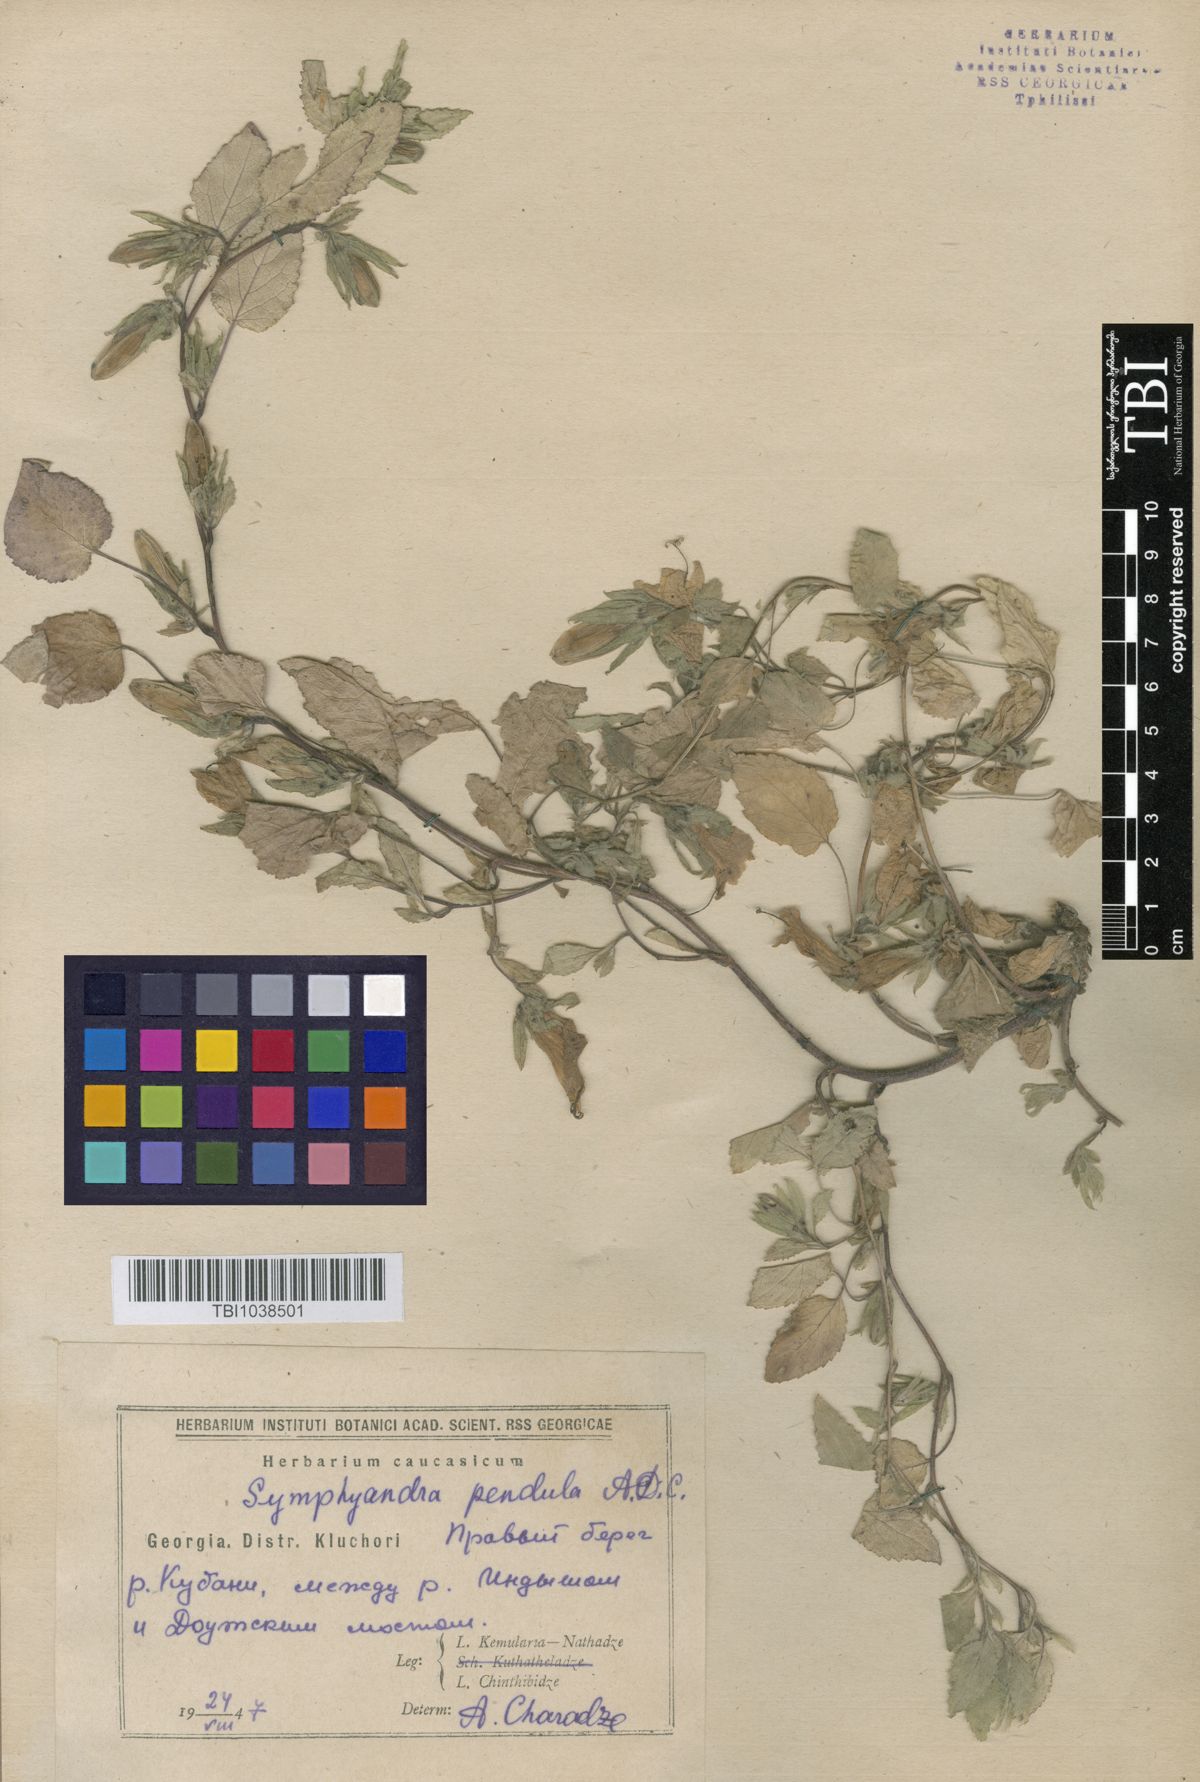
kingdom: Plantae
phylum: Tracheophyta
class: Magnoliopsida
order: Asterales
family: Campanulaceae
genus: Campanula
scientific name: Campanula pendula
